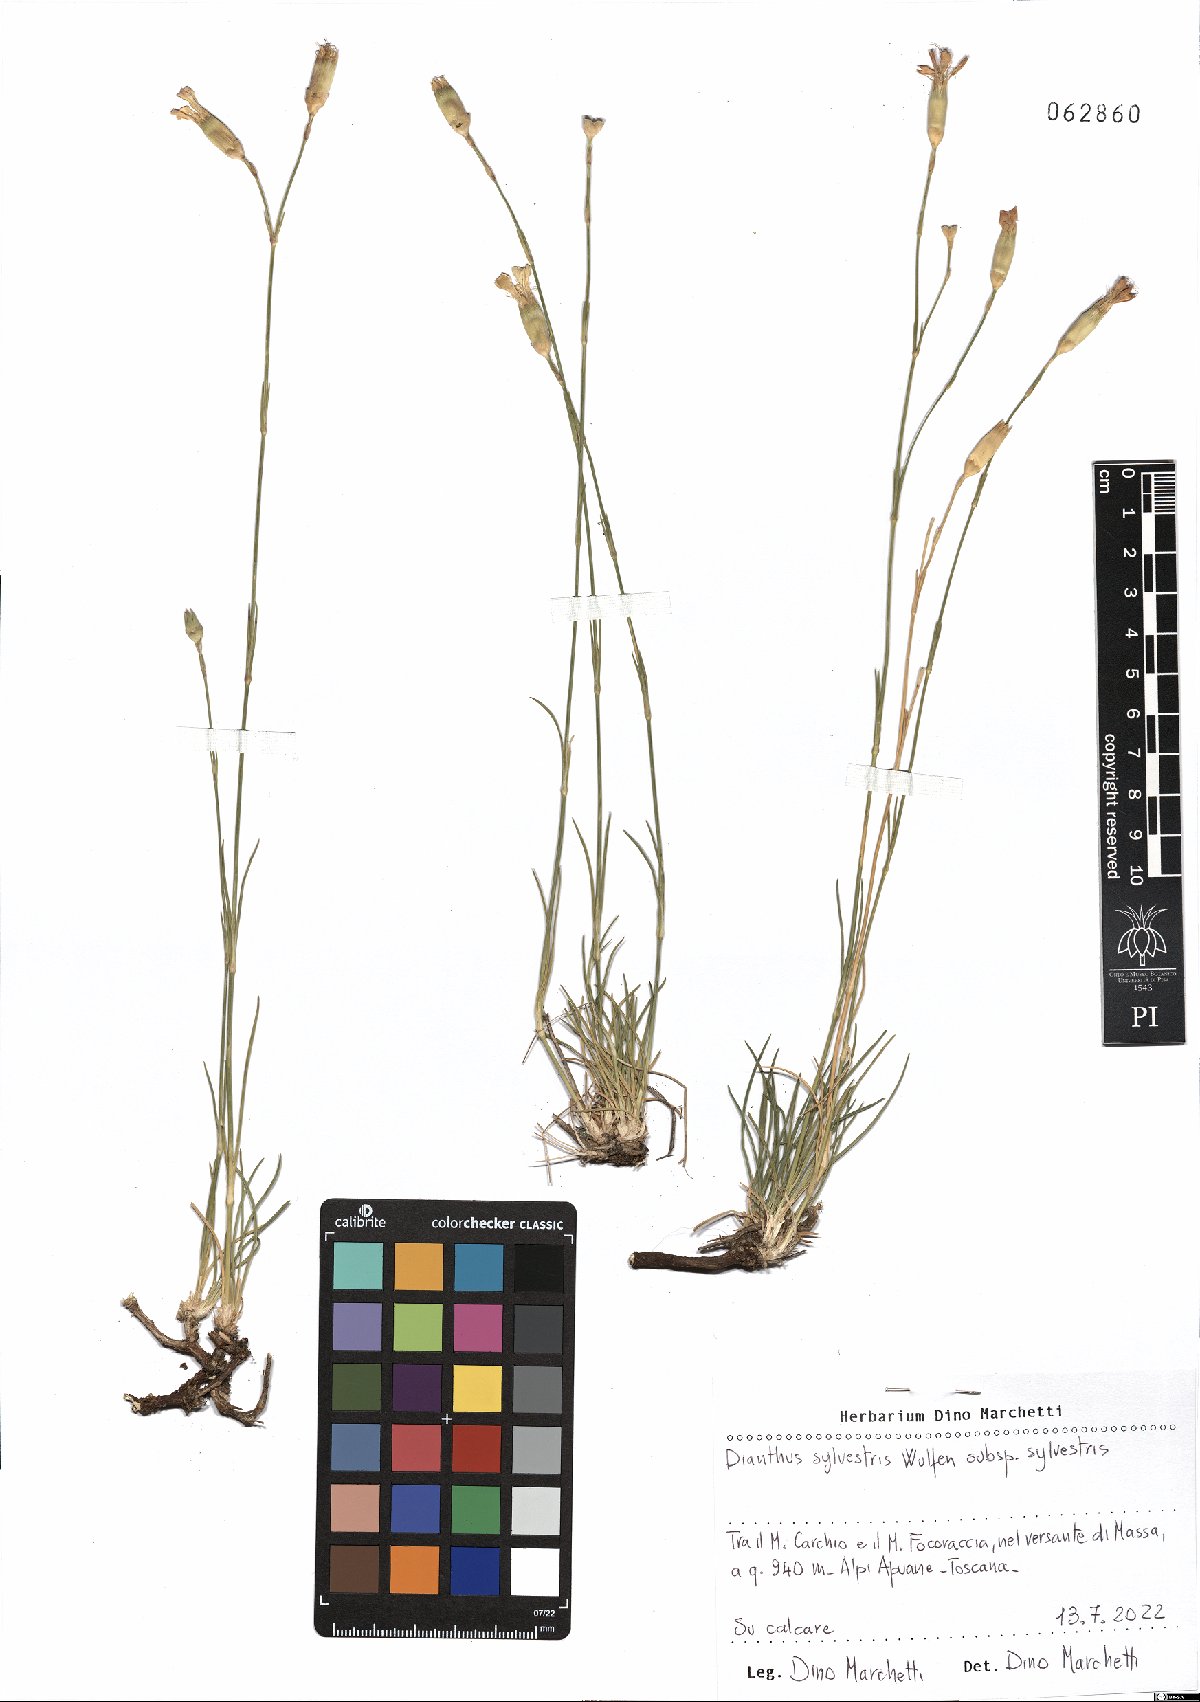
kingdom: Plantae
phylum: Tracheophyta
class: Magnoliopsida
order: Caryophyllales
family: Caryophyllaceae
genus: Dianthus
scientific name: Dianthus sylvestris
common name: Wood pink
